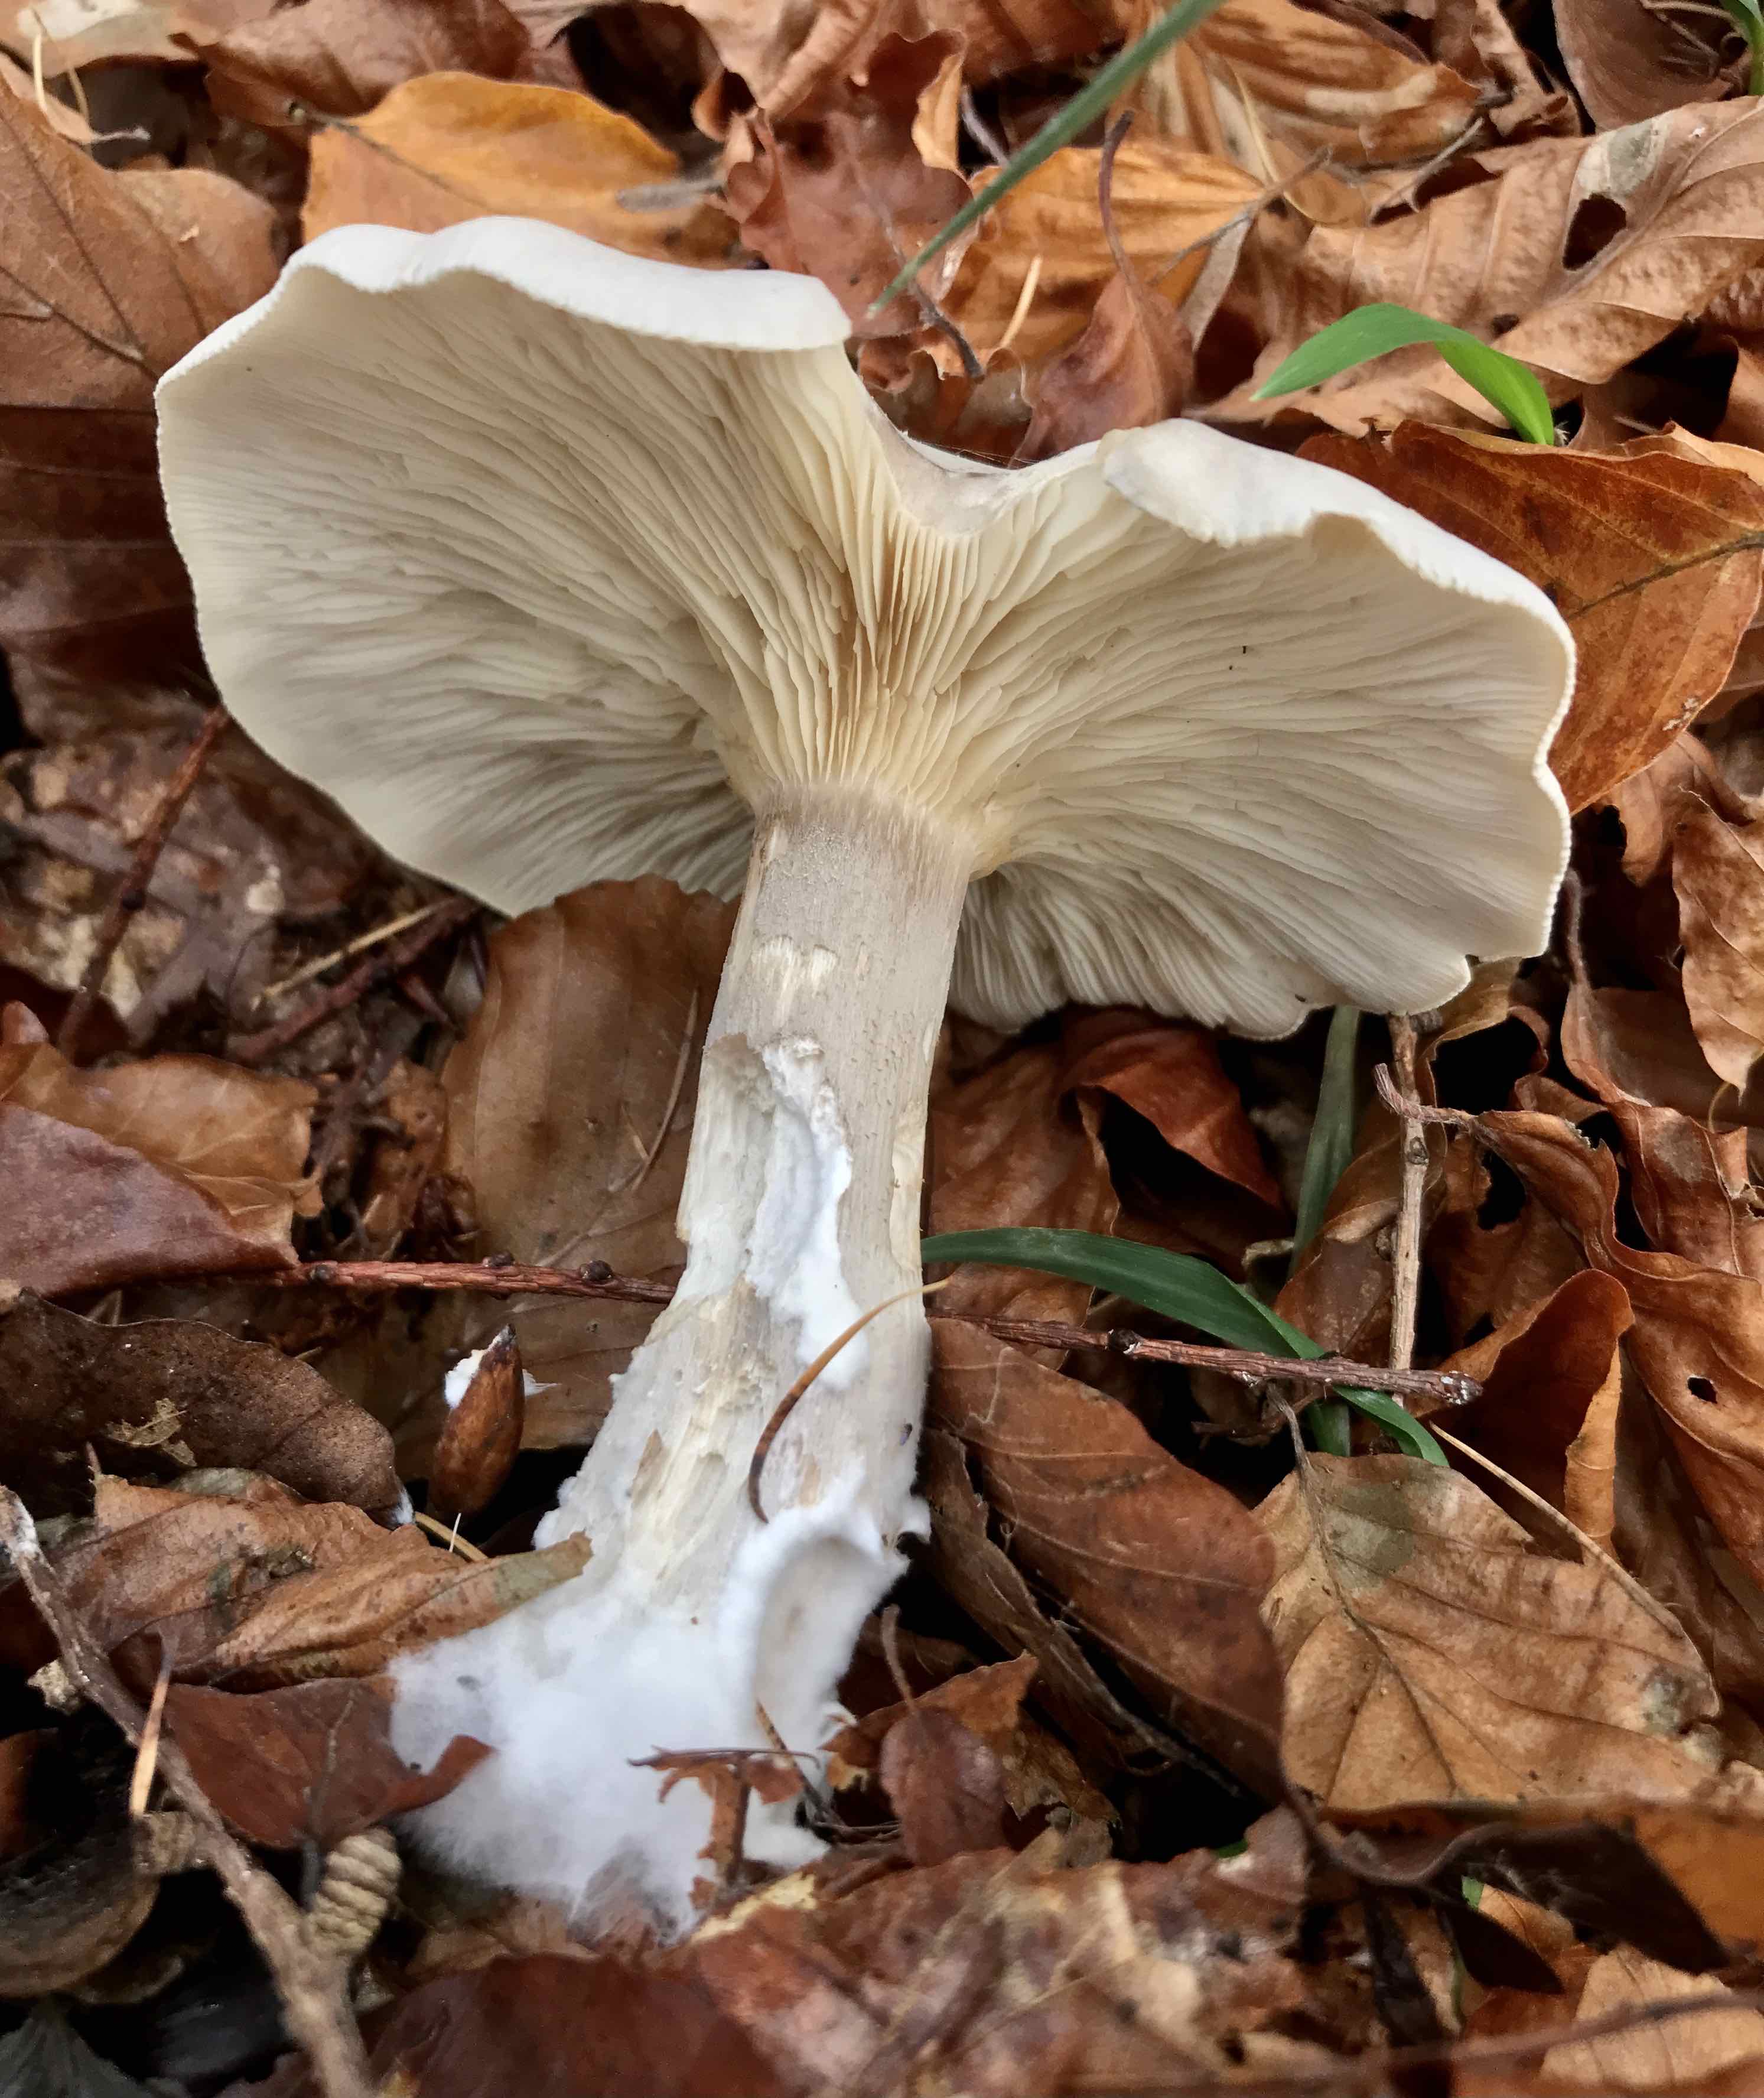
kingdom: Fungi
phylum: Basidiomycota
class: Agaricomycetes
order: Agaricales
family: Tricholomataceae
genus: Clitocybe
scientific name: Clitocybe nebularis
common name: tåge-tragthat
